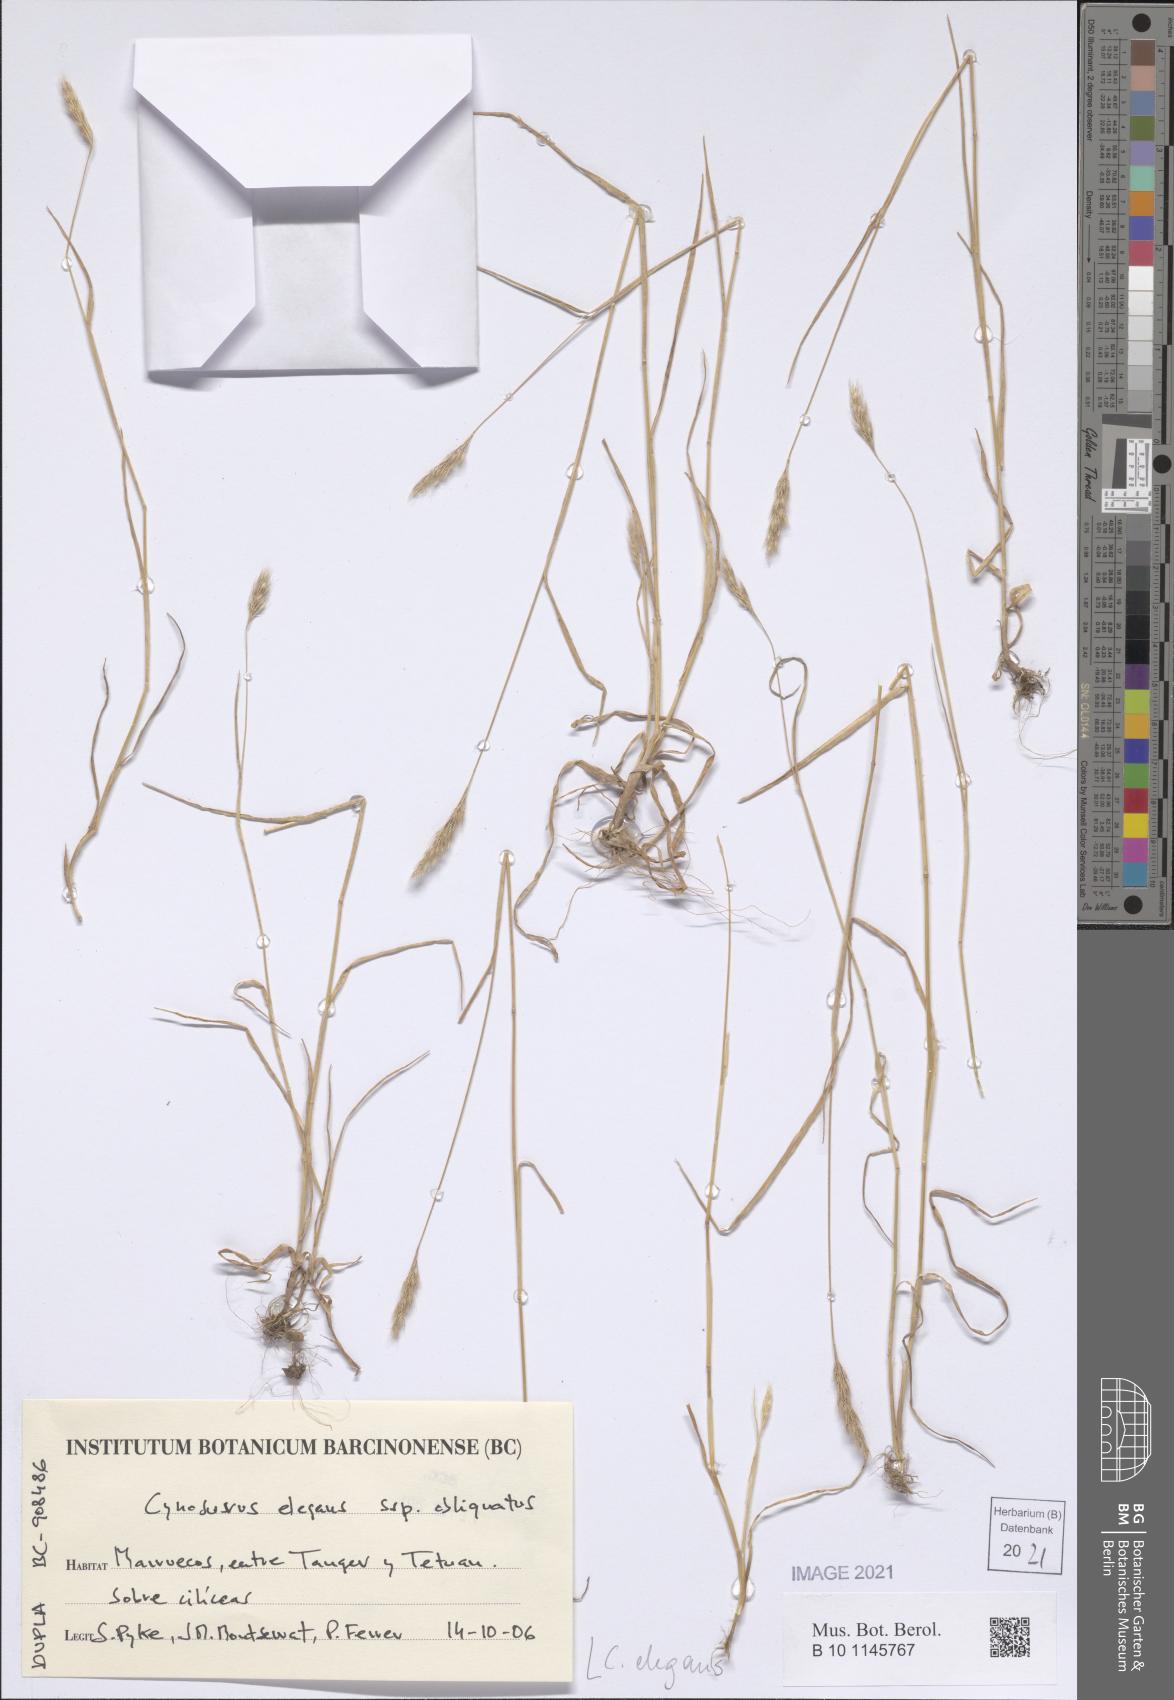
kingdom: Plantae
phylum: Tracheophyta
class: Liliopsida
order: Poales
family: Poaceae
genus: Cynosurus
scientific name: Cynosurus elegans
